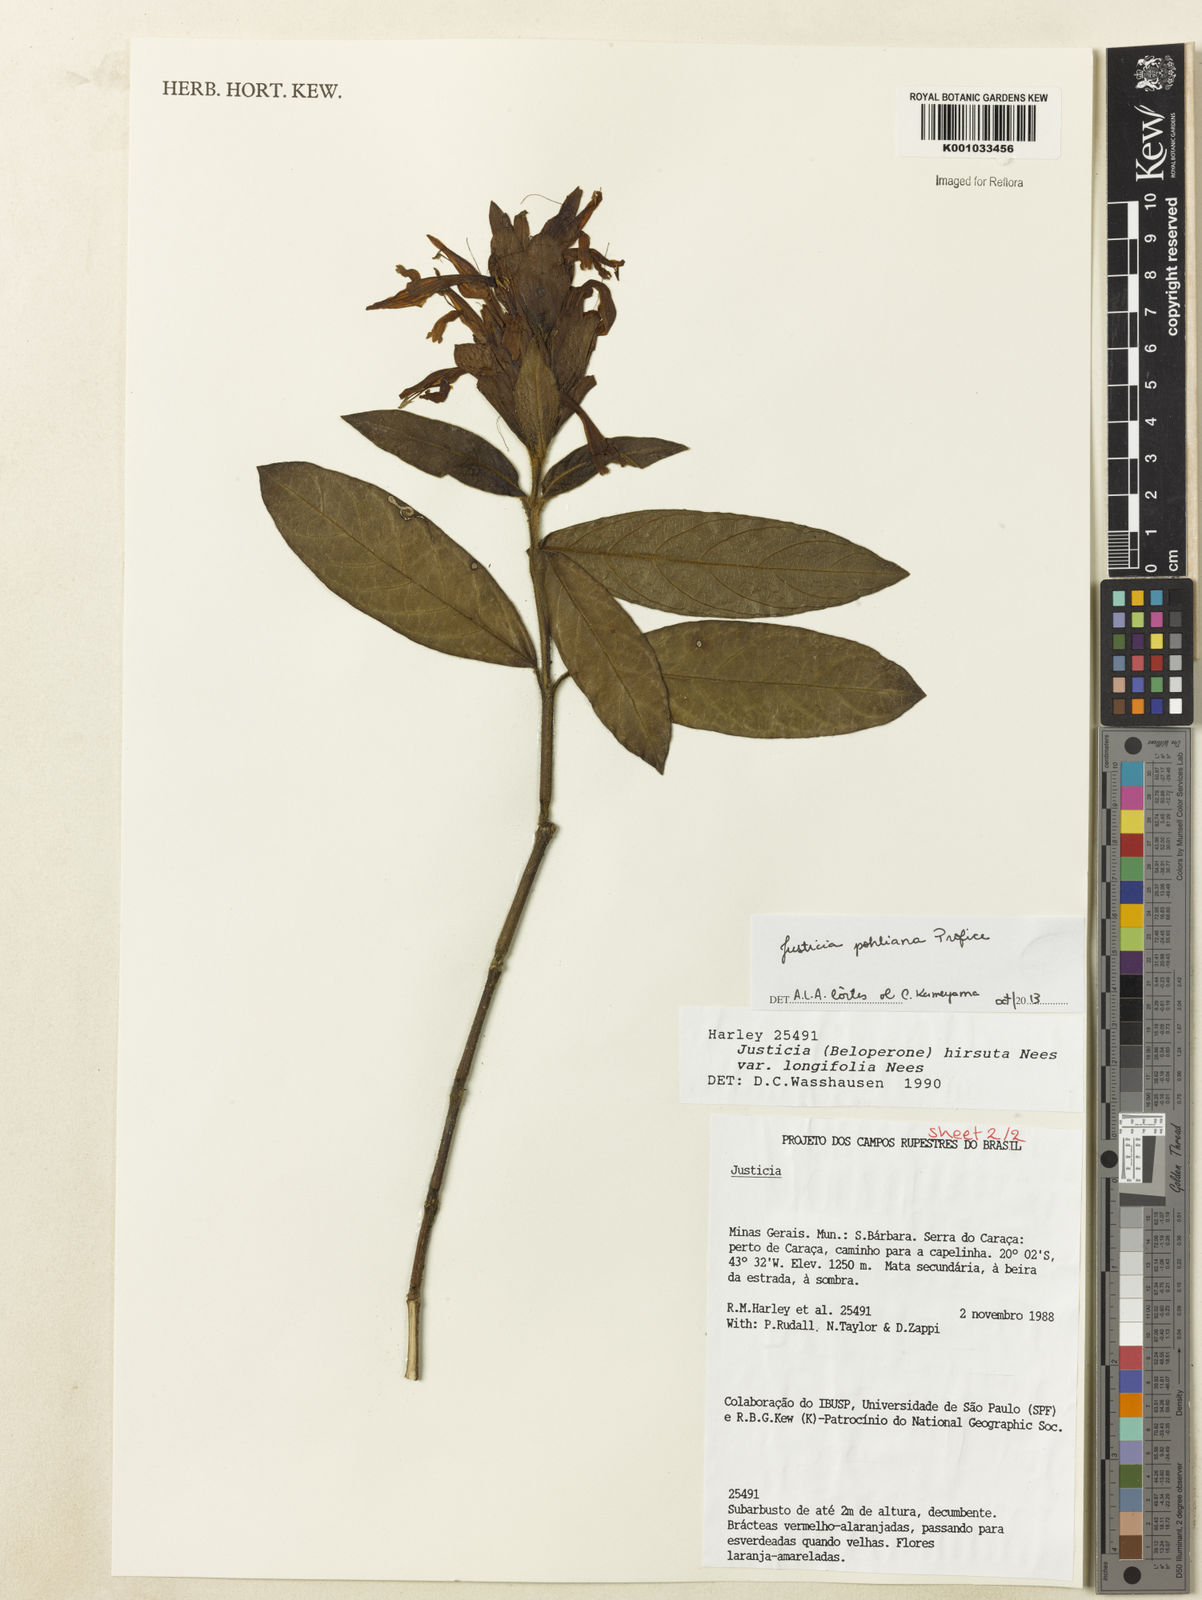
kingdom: Plantae
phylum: Tracheophyta
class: Magnoliopsida
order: Lamiales
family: Acanthaceae
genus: Justicia
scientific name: Justicia pohliana
